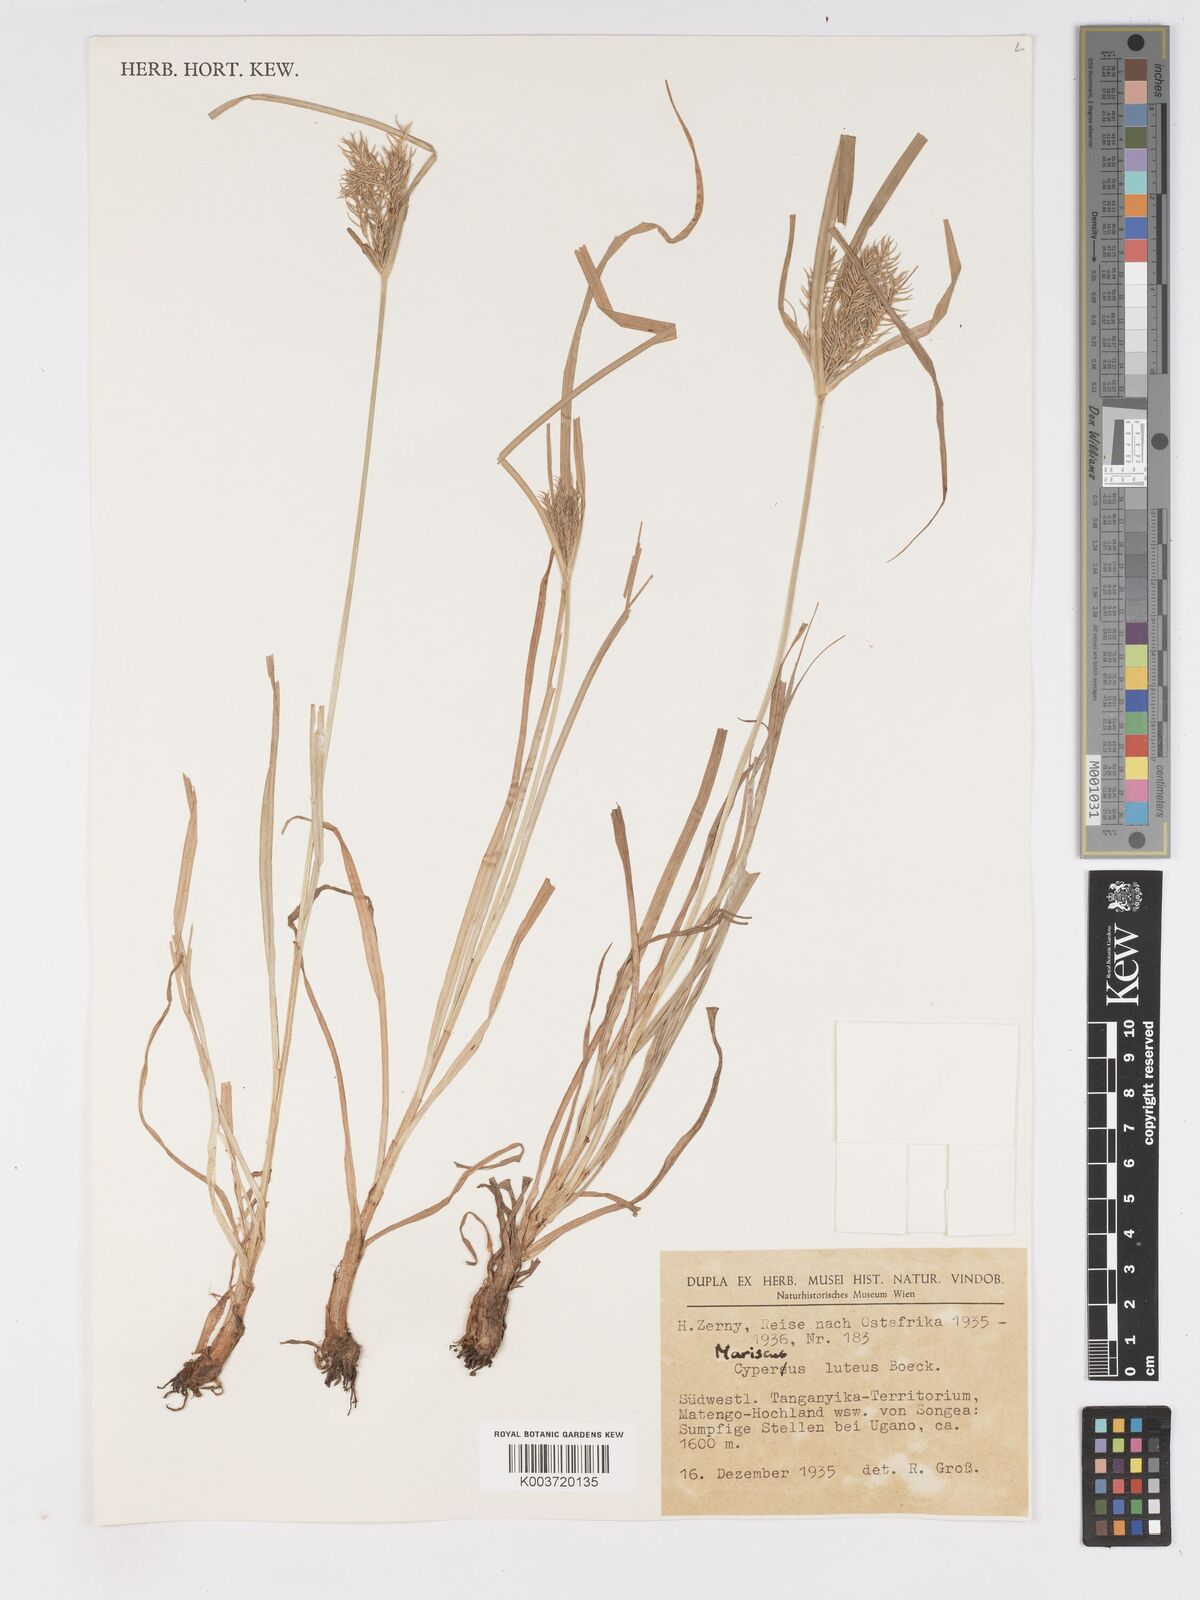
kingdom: Plantae
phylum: Tracheophyta
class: Liliopsida
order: Poales
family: Cyperaceae
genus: Cyperus
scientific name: Cyperus luteus
